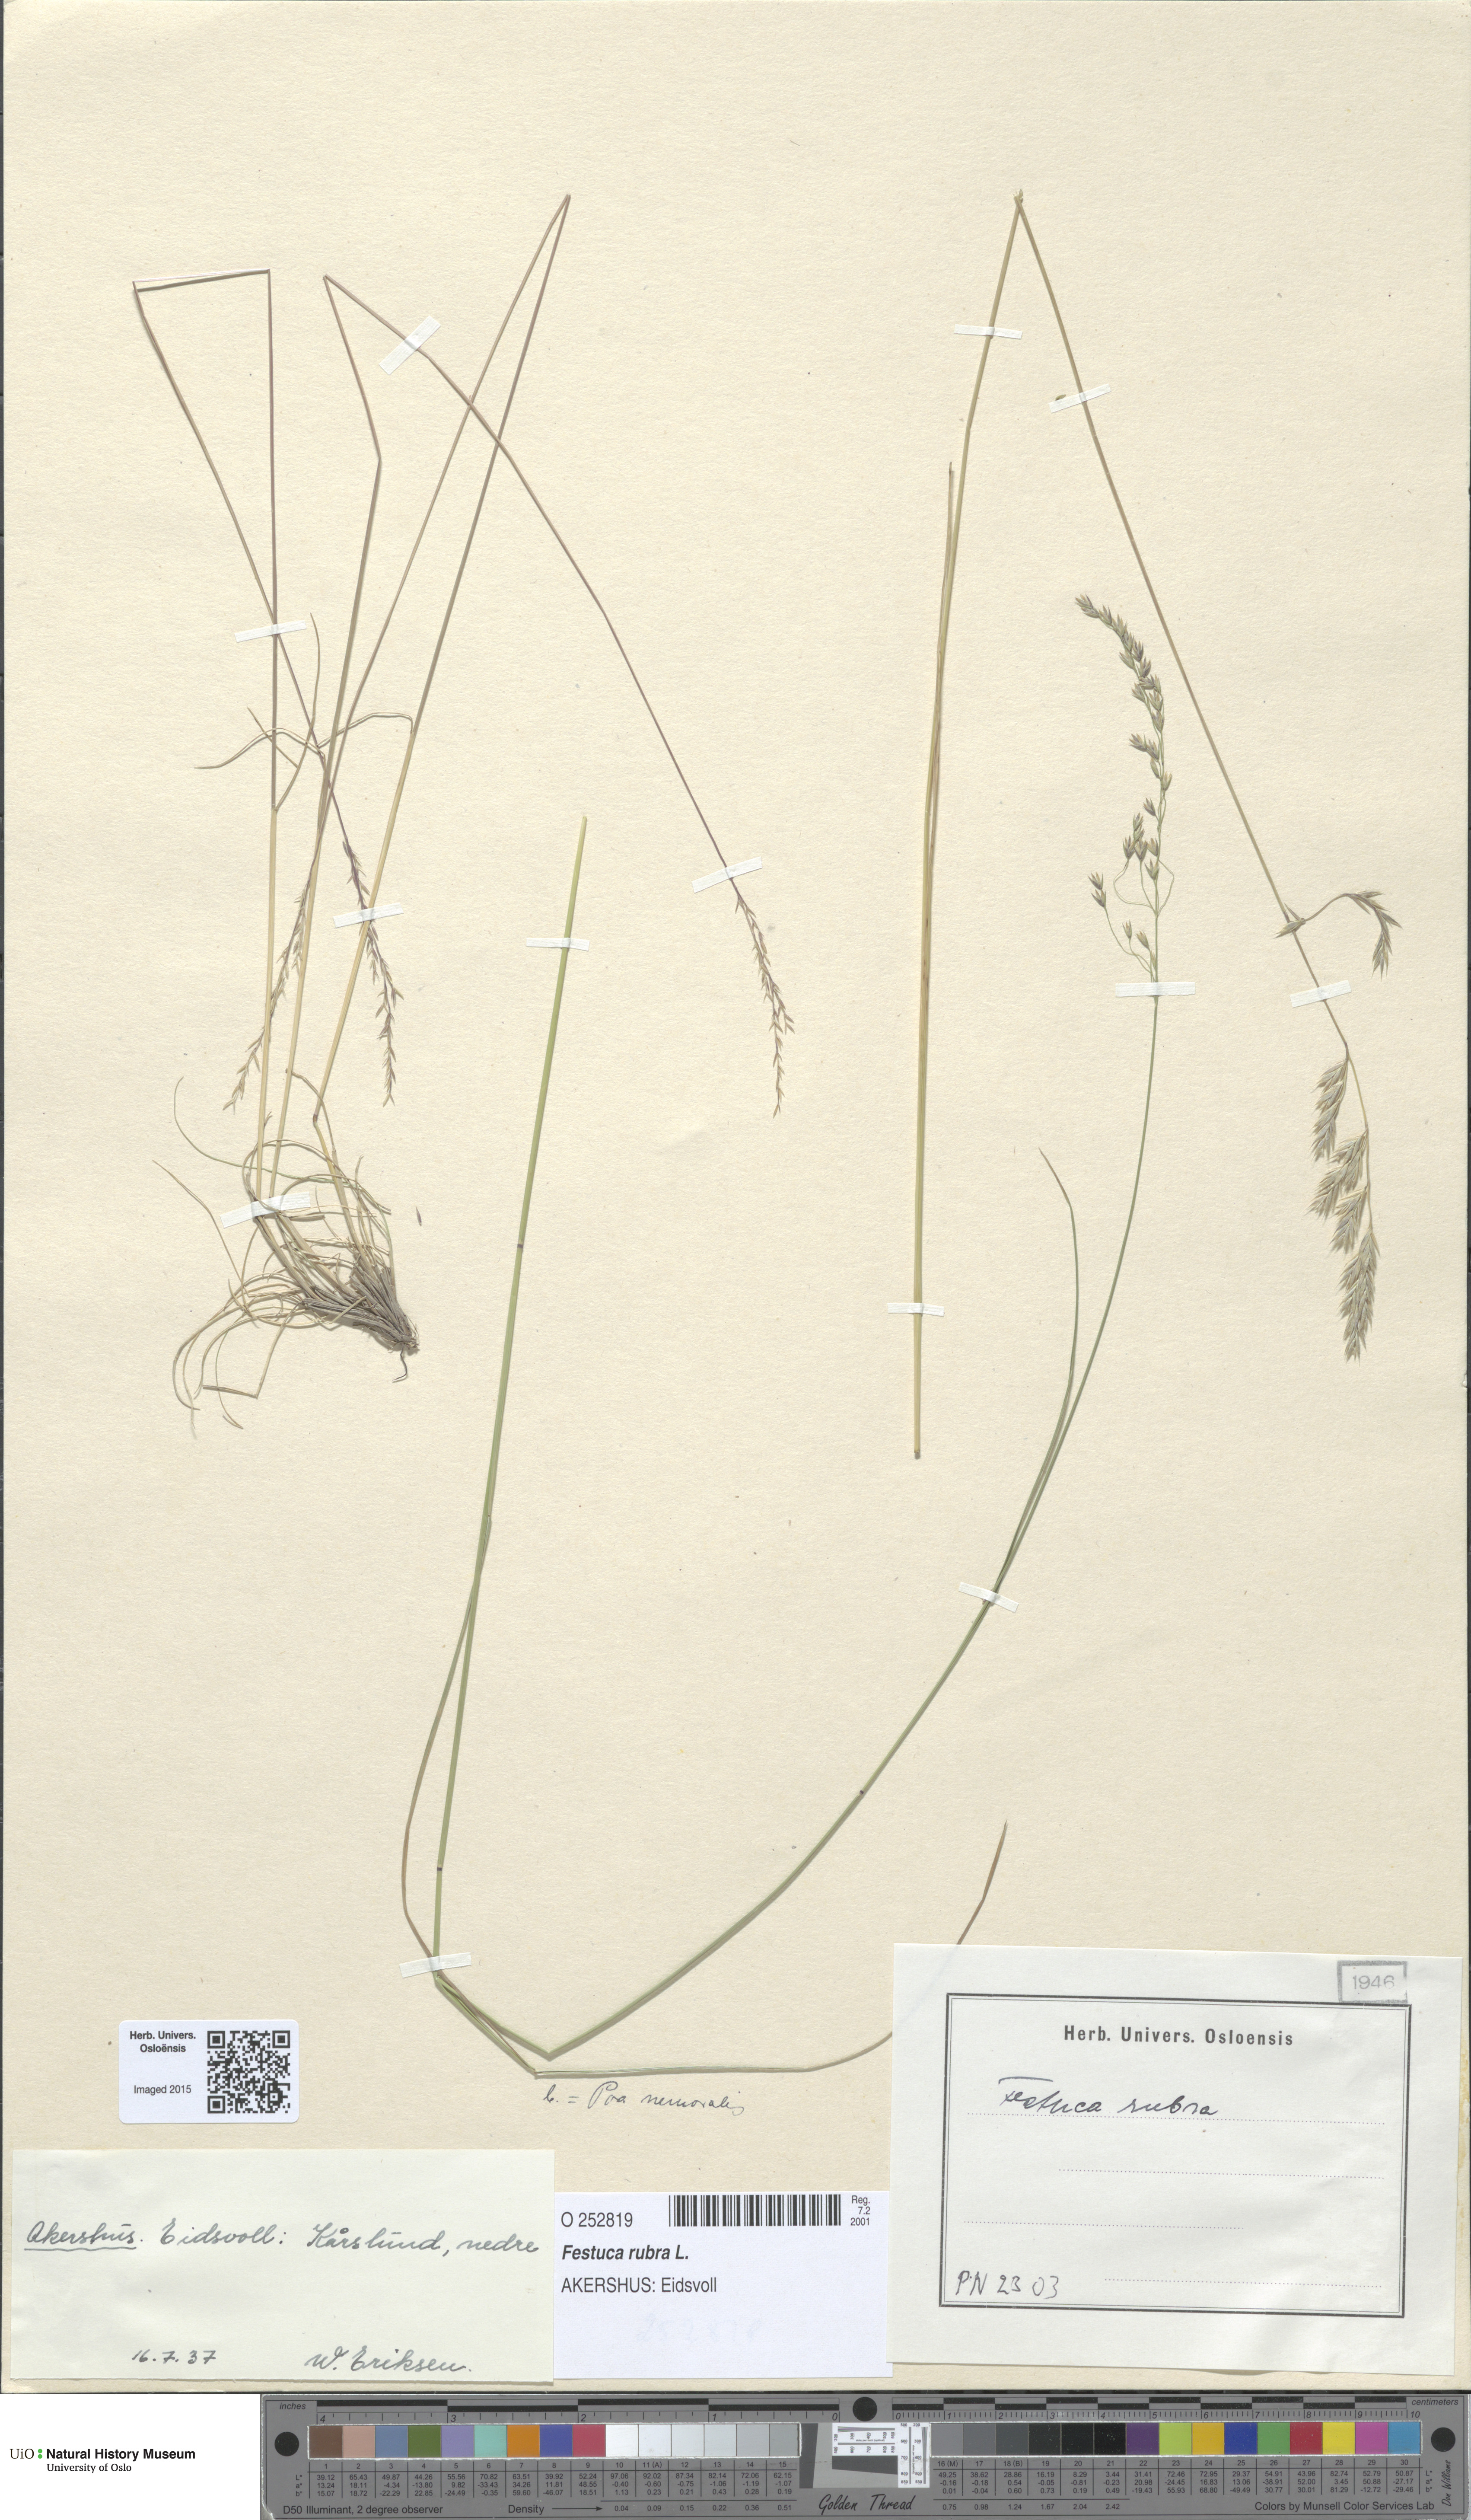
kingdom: Plantae
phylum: Tracheophyta
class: Liliopsida
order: Poales
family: Poaceae
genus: Festuca
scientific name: Festuca rubra
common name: Red fescue
